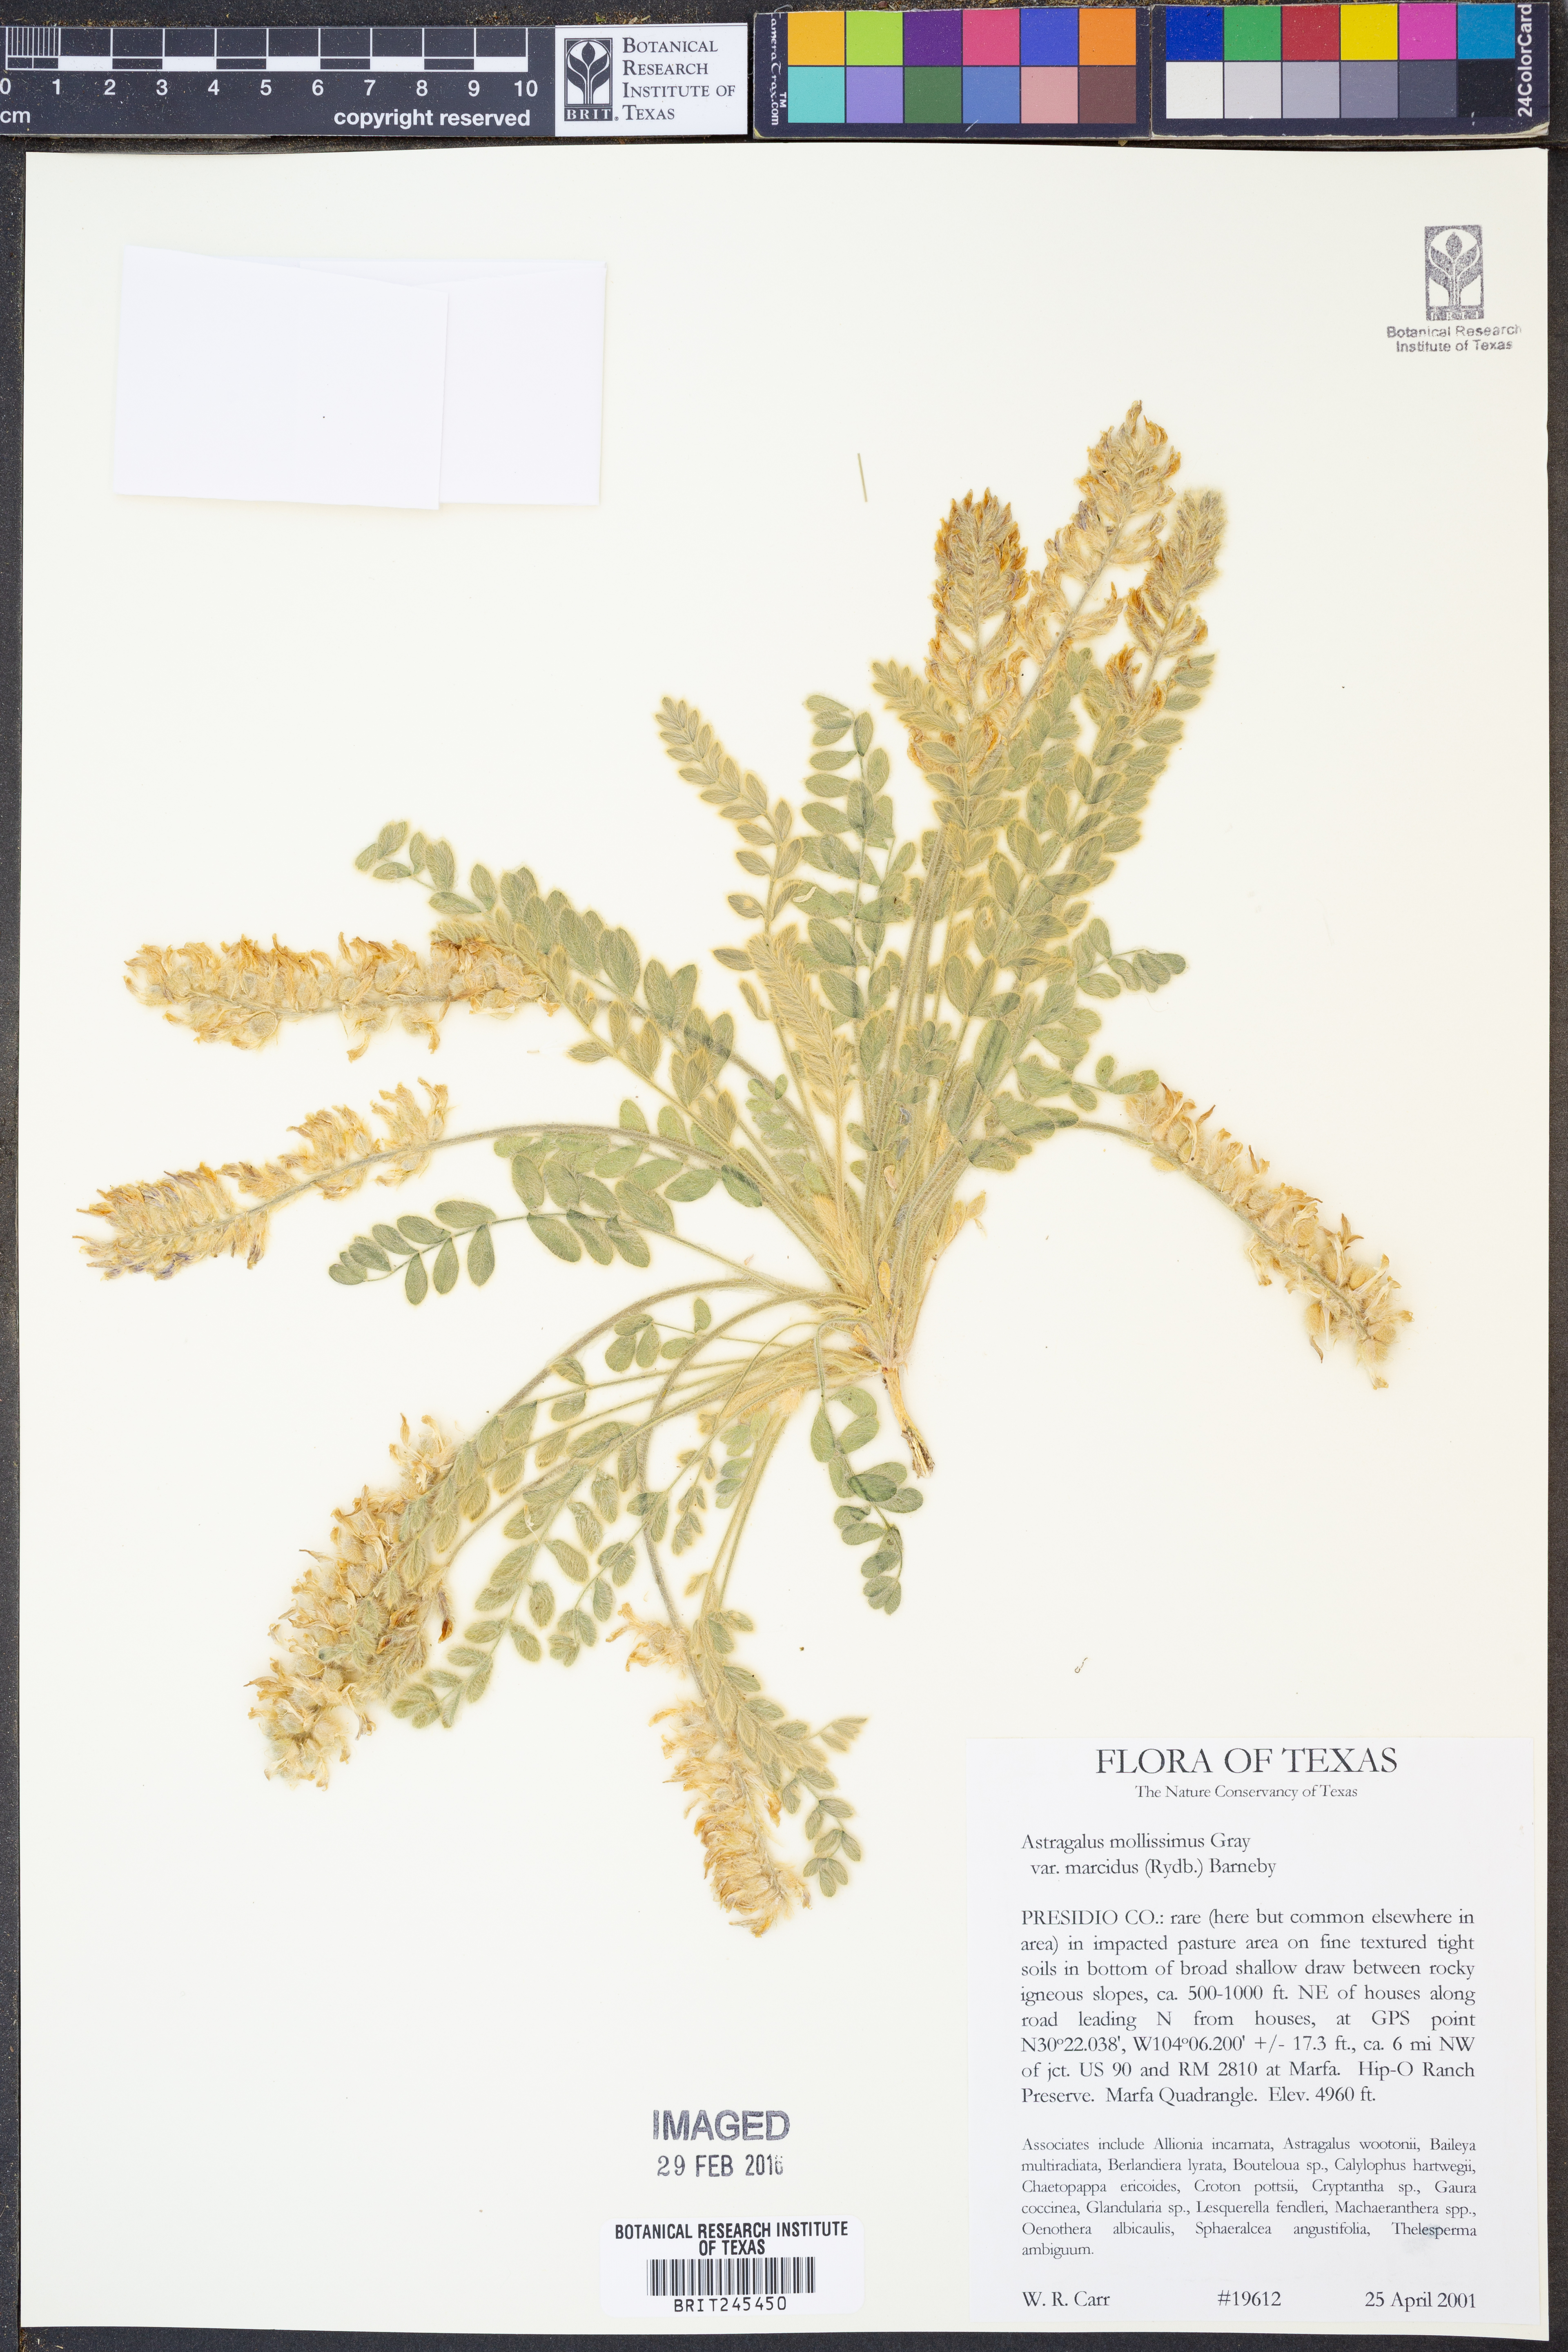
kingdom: Plantae
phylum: Tracheophyta
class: Magnoliopsida
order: Fabales
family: Fabaceae
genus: Astragalus
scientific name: Astragalus mollissimus
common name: Woolly locoweed
